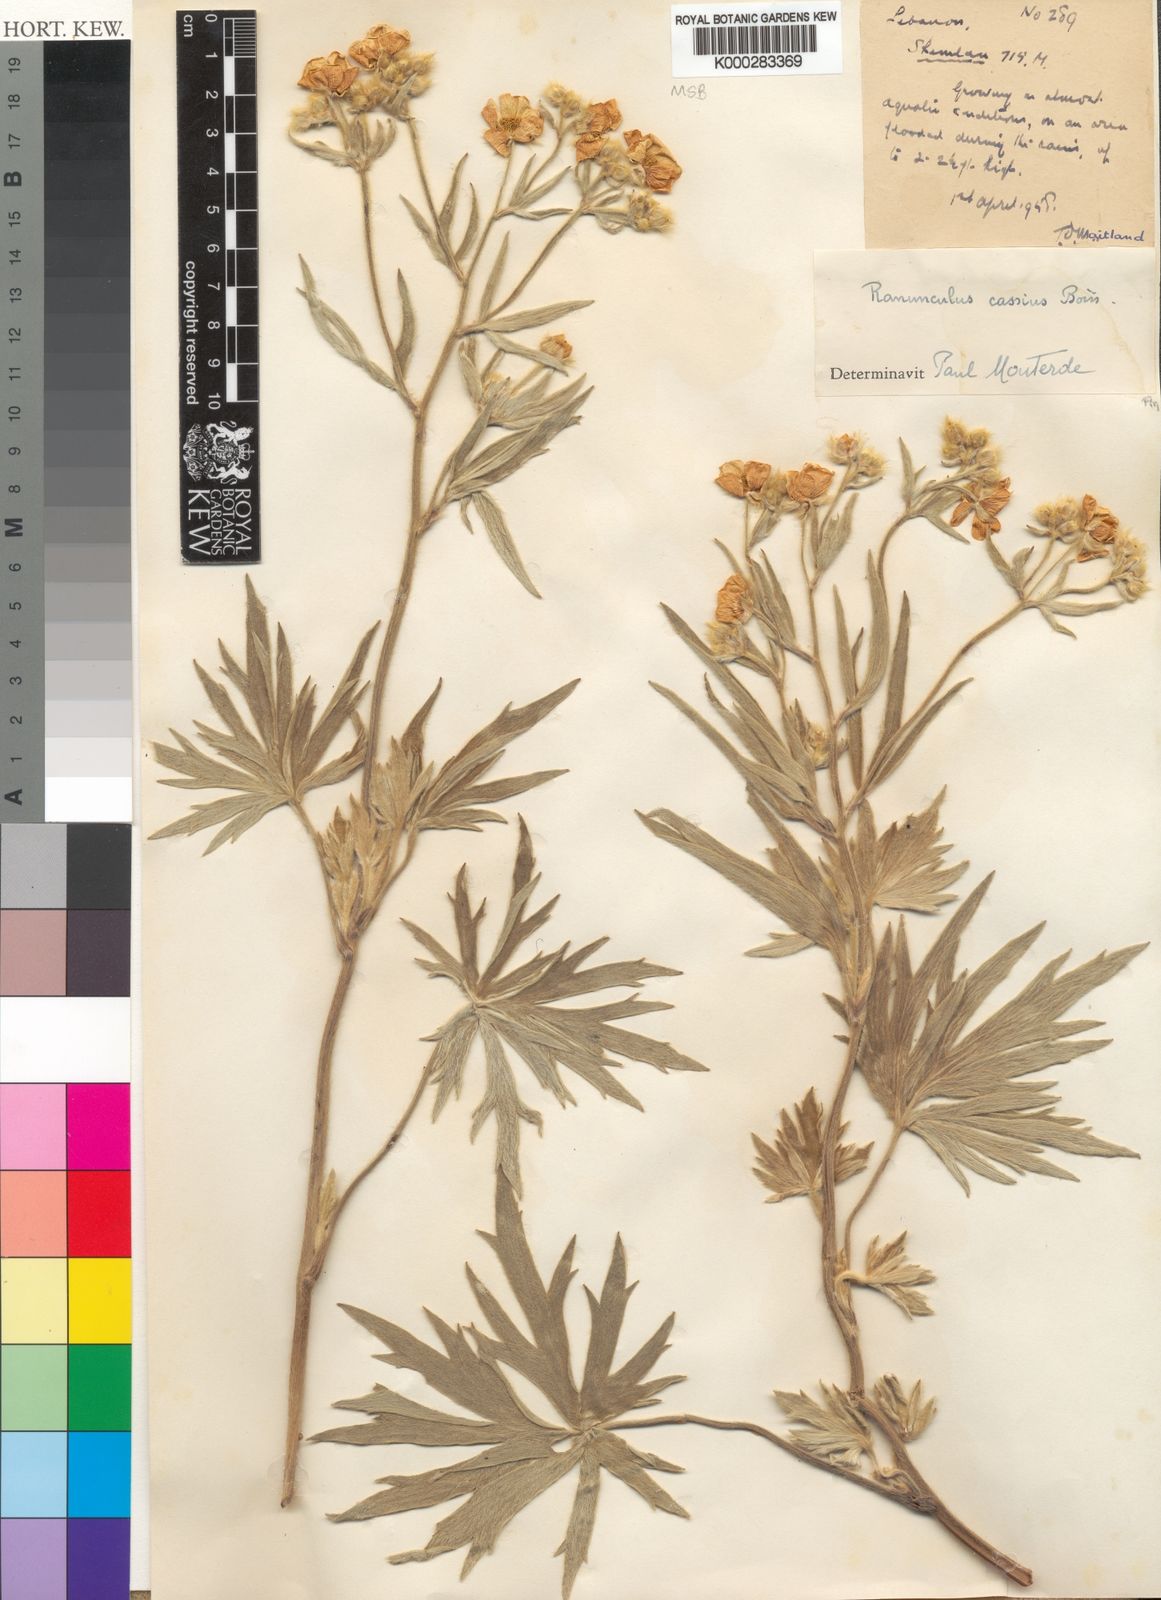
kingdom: Plantae
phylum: Tracheophyta
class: Magnoliopsida
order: Ranunculales
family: Ranunculaceae
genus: Ranunculus
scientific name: Ranunculus sericeus
